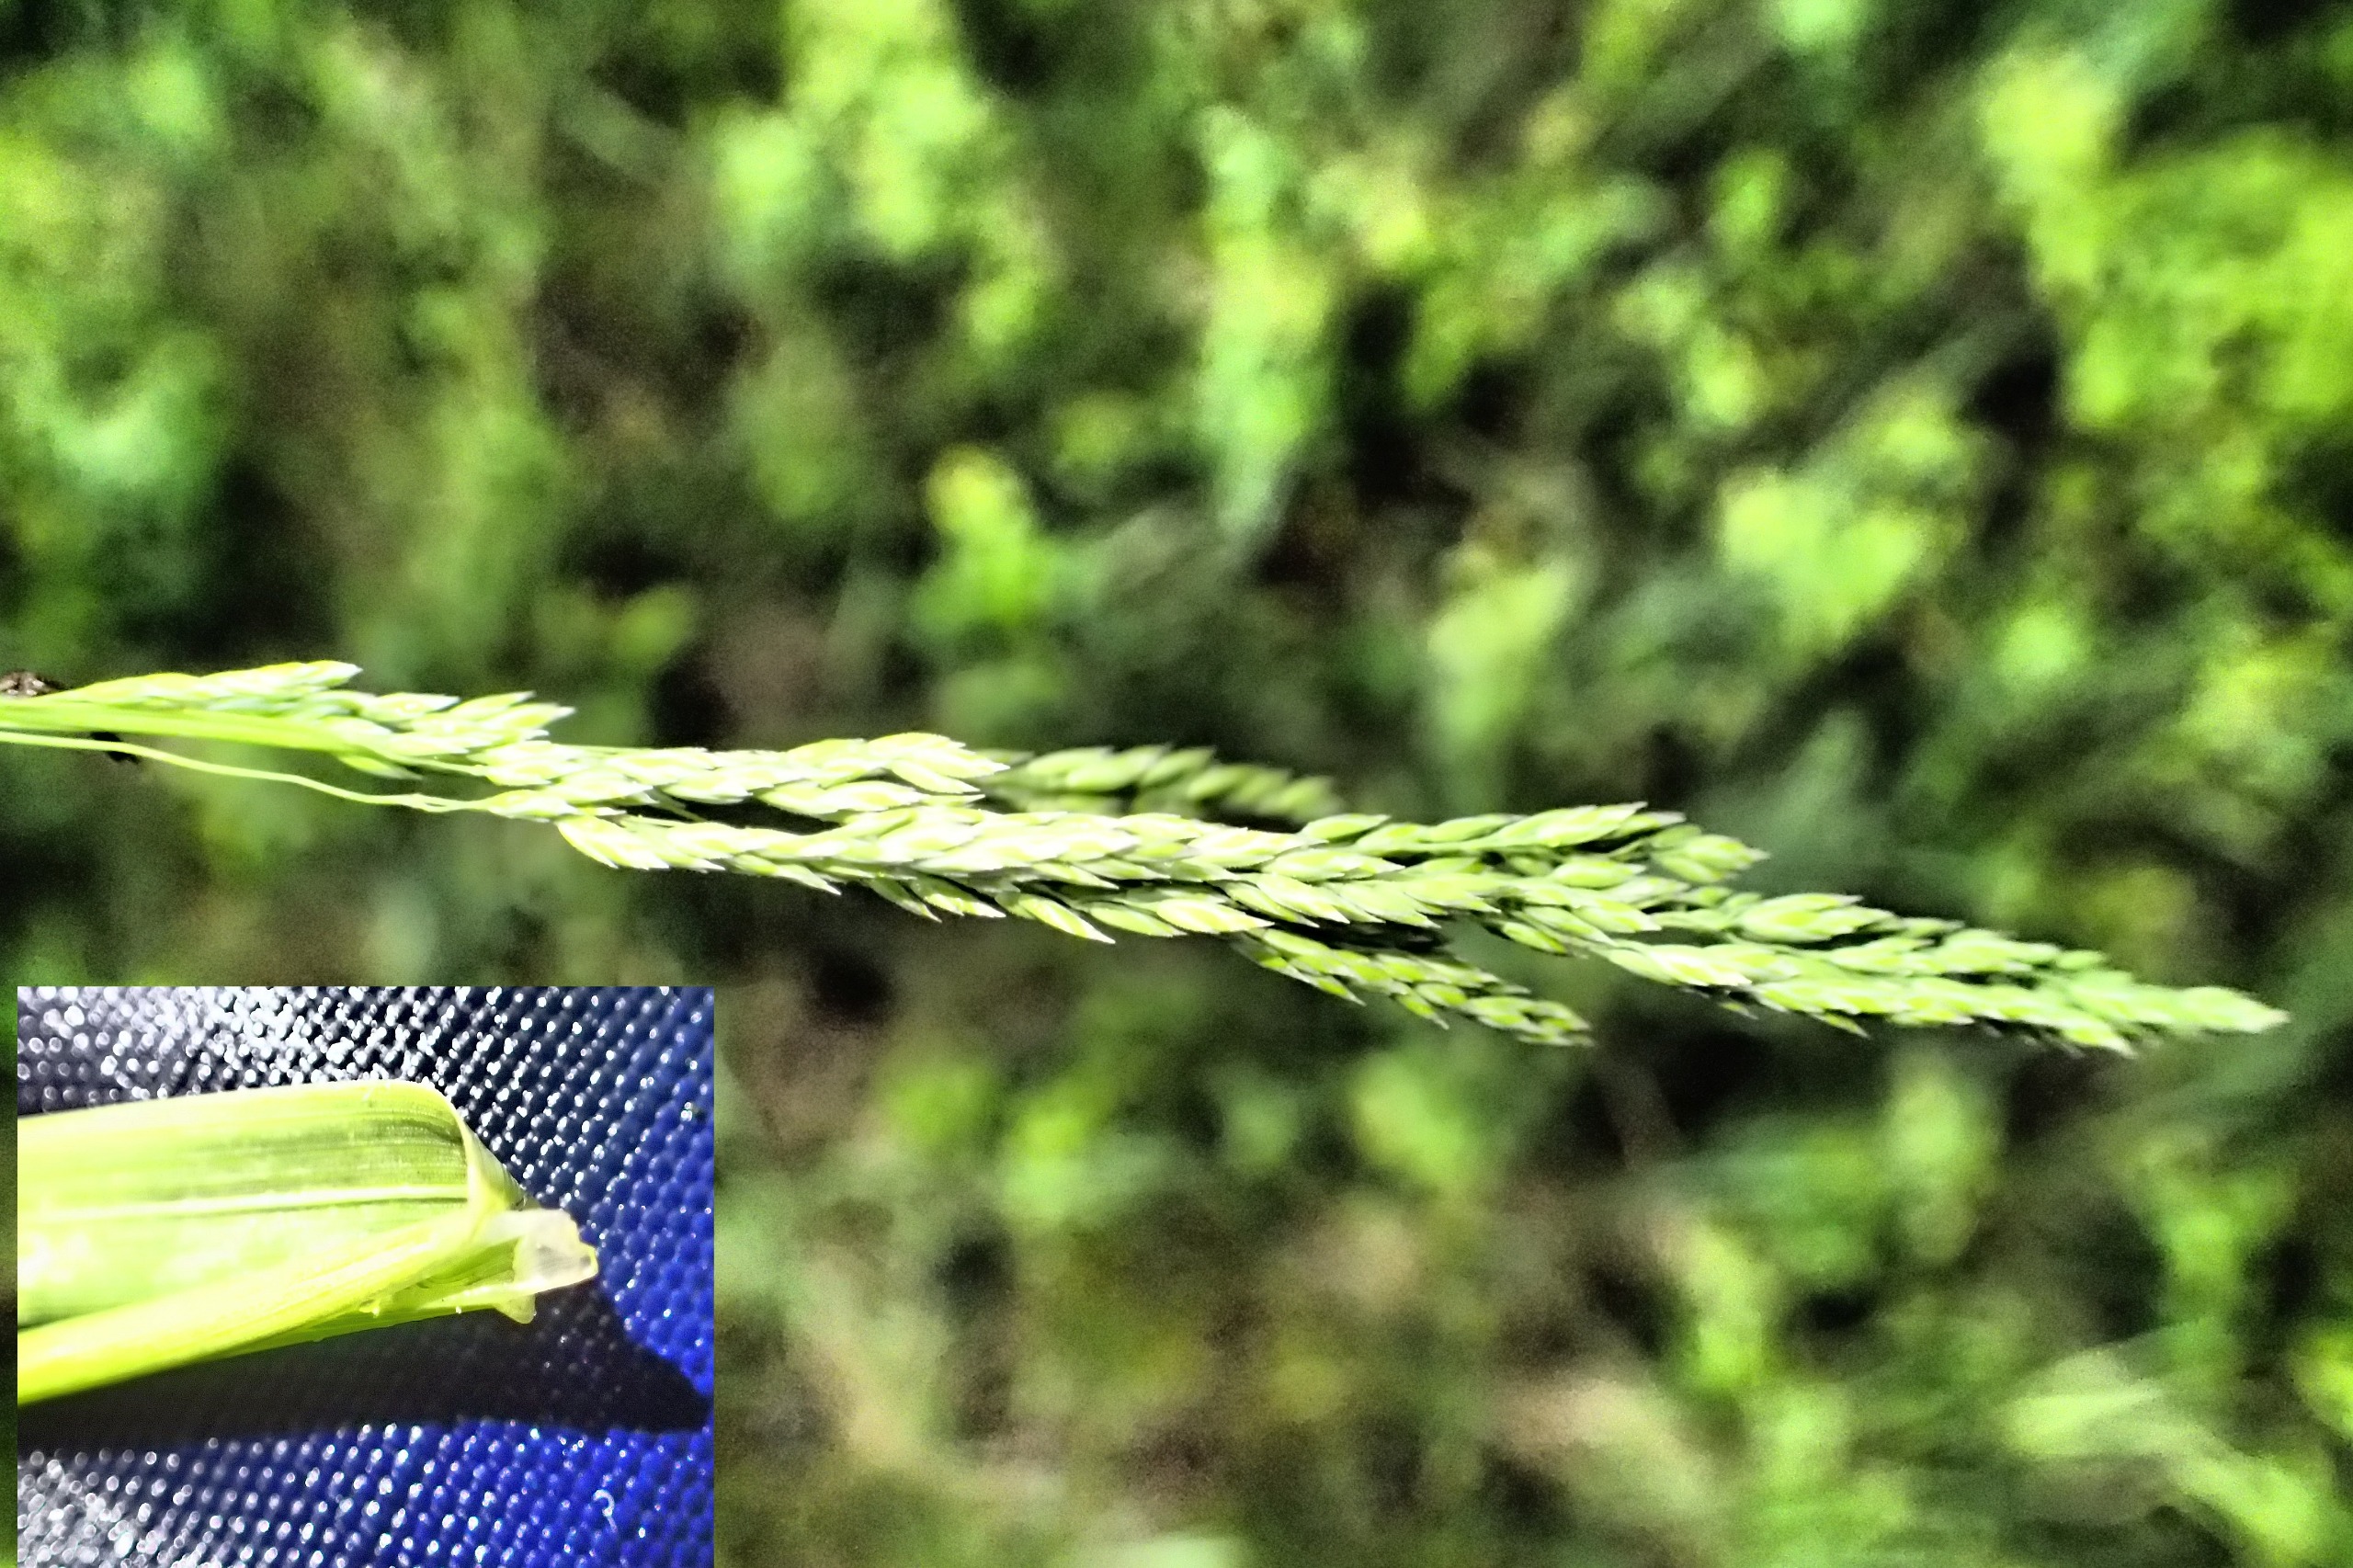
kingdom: Plantae
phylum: Tracheophyta
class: Liliopsida
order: Poales
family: Poaceae
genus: Poa
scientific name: Poa pratensis
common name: Eng-rapgræs
